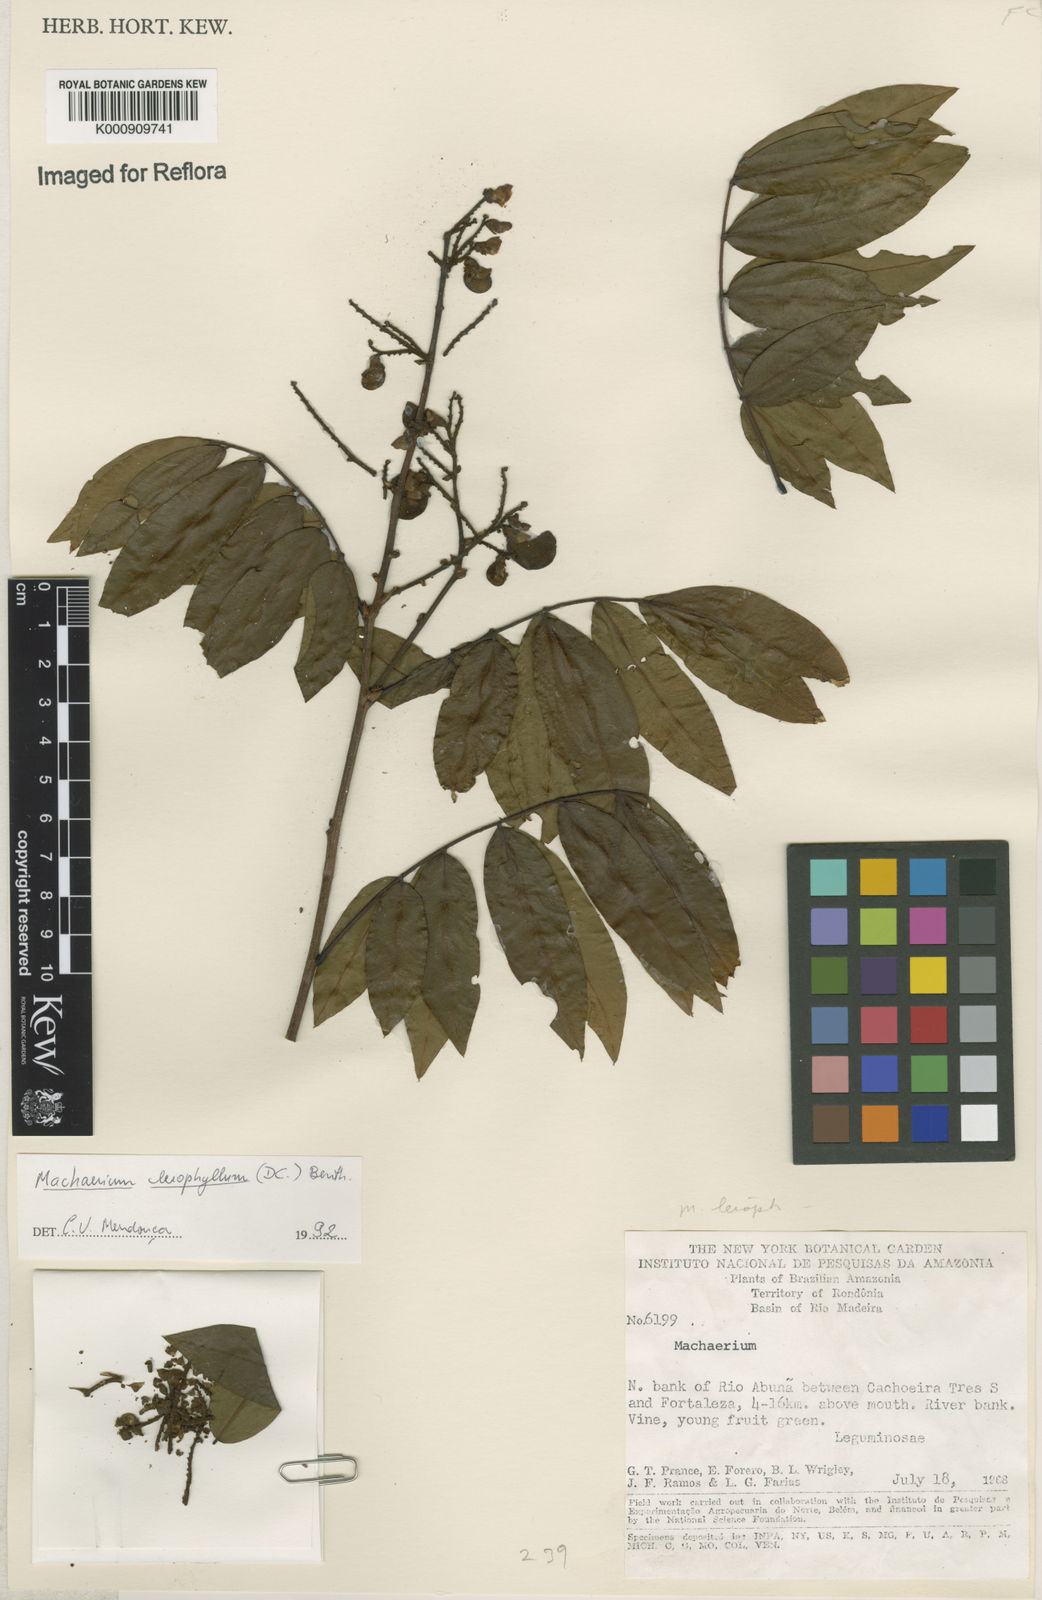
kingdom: Plantae
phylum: Tracheophyta
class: Magnoliopsida
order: Fabales
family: Fabaceae
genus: Machaerium
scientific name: Machaerium leiophyllum
